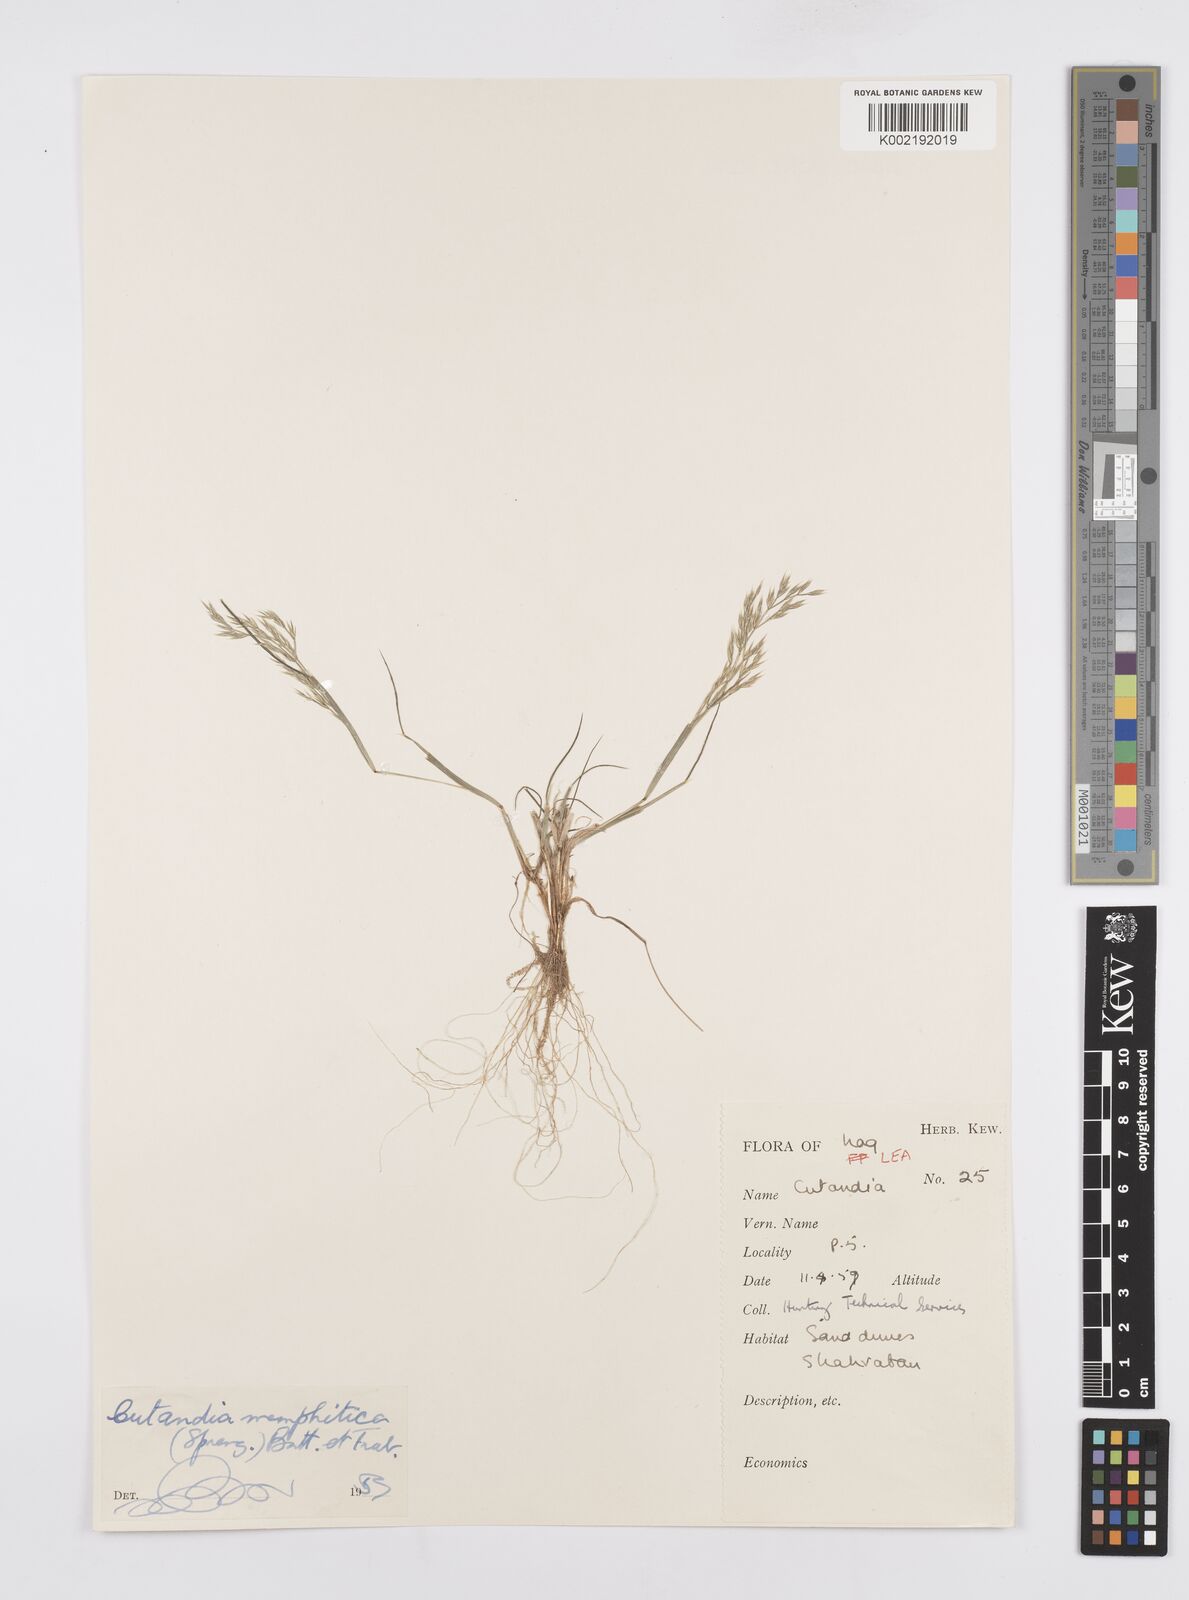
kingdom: Plantae
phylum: Tracheophyta
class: Liliopsida
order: Poales
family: Poaceae
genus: Cutandia
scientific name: Cutandia memphitica
